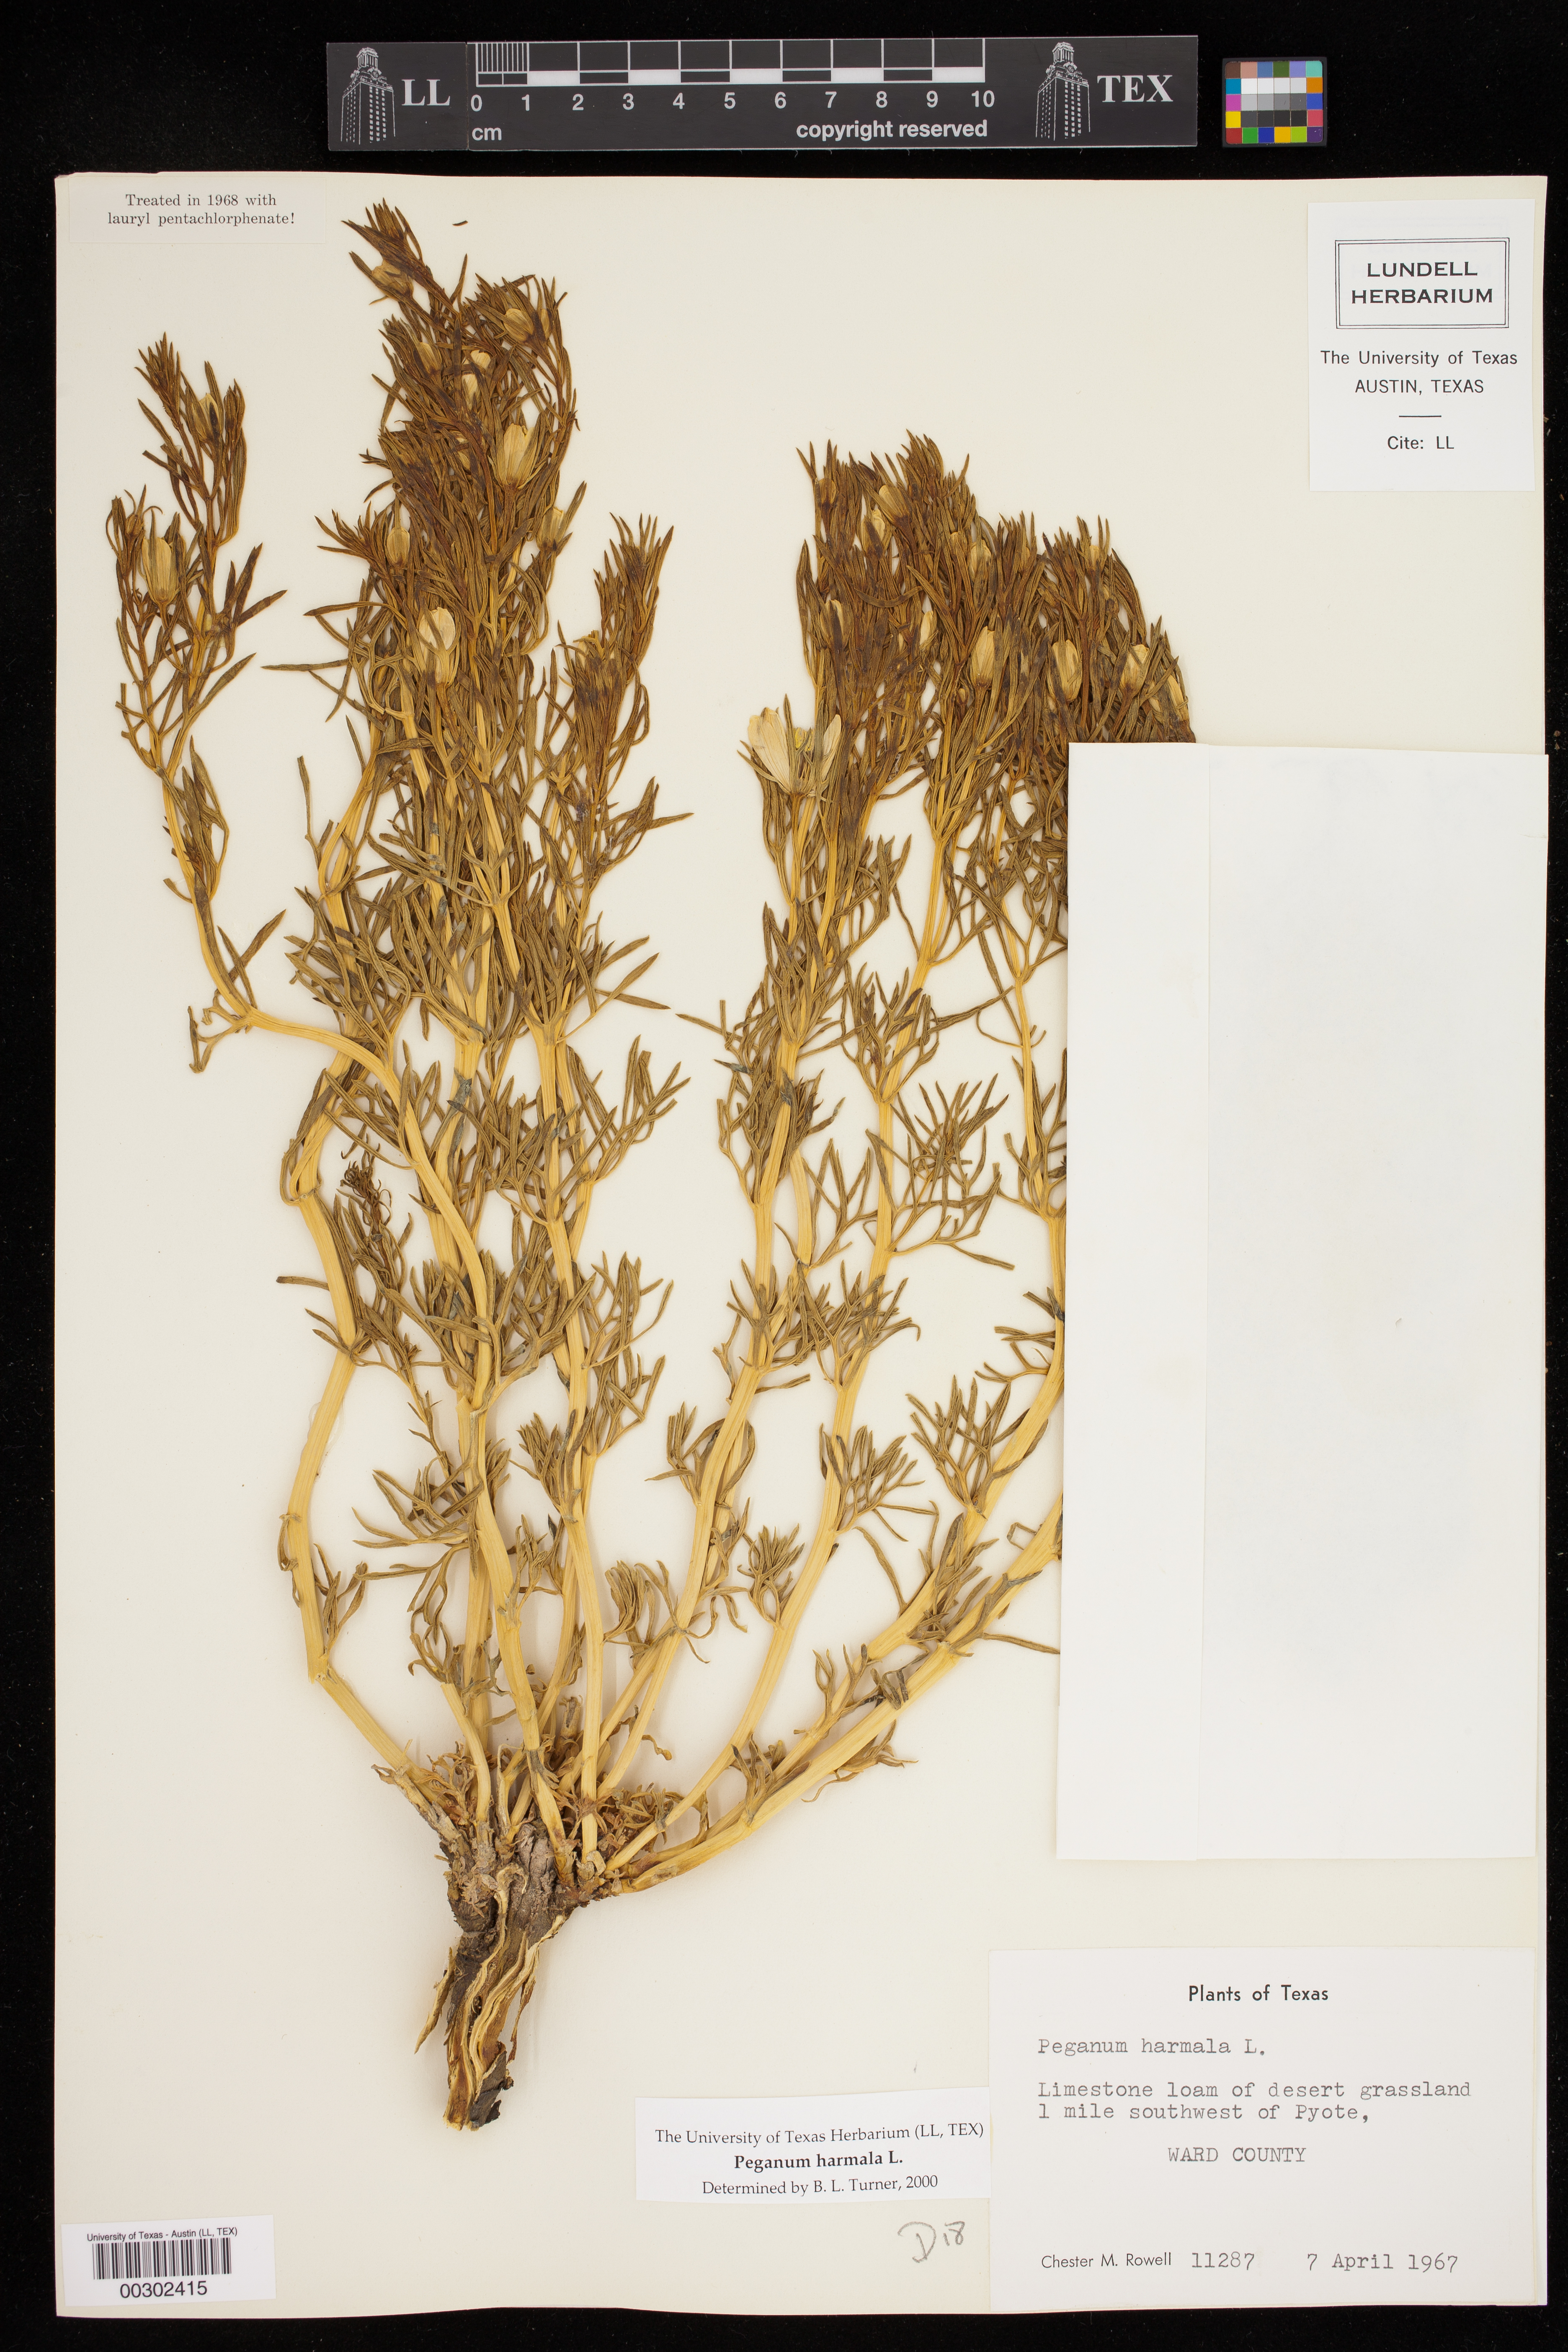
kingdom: Plantae
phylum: Tracheophyta
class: Magnoliopsida
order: Sapindales
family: Tetradiclidaceae
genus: Peganum
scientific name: Peganum harmala
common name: Harmal peganum
